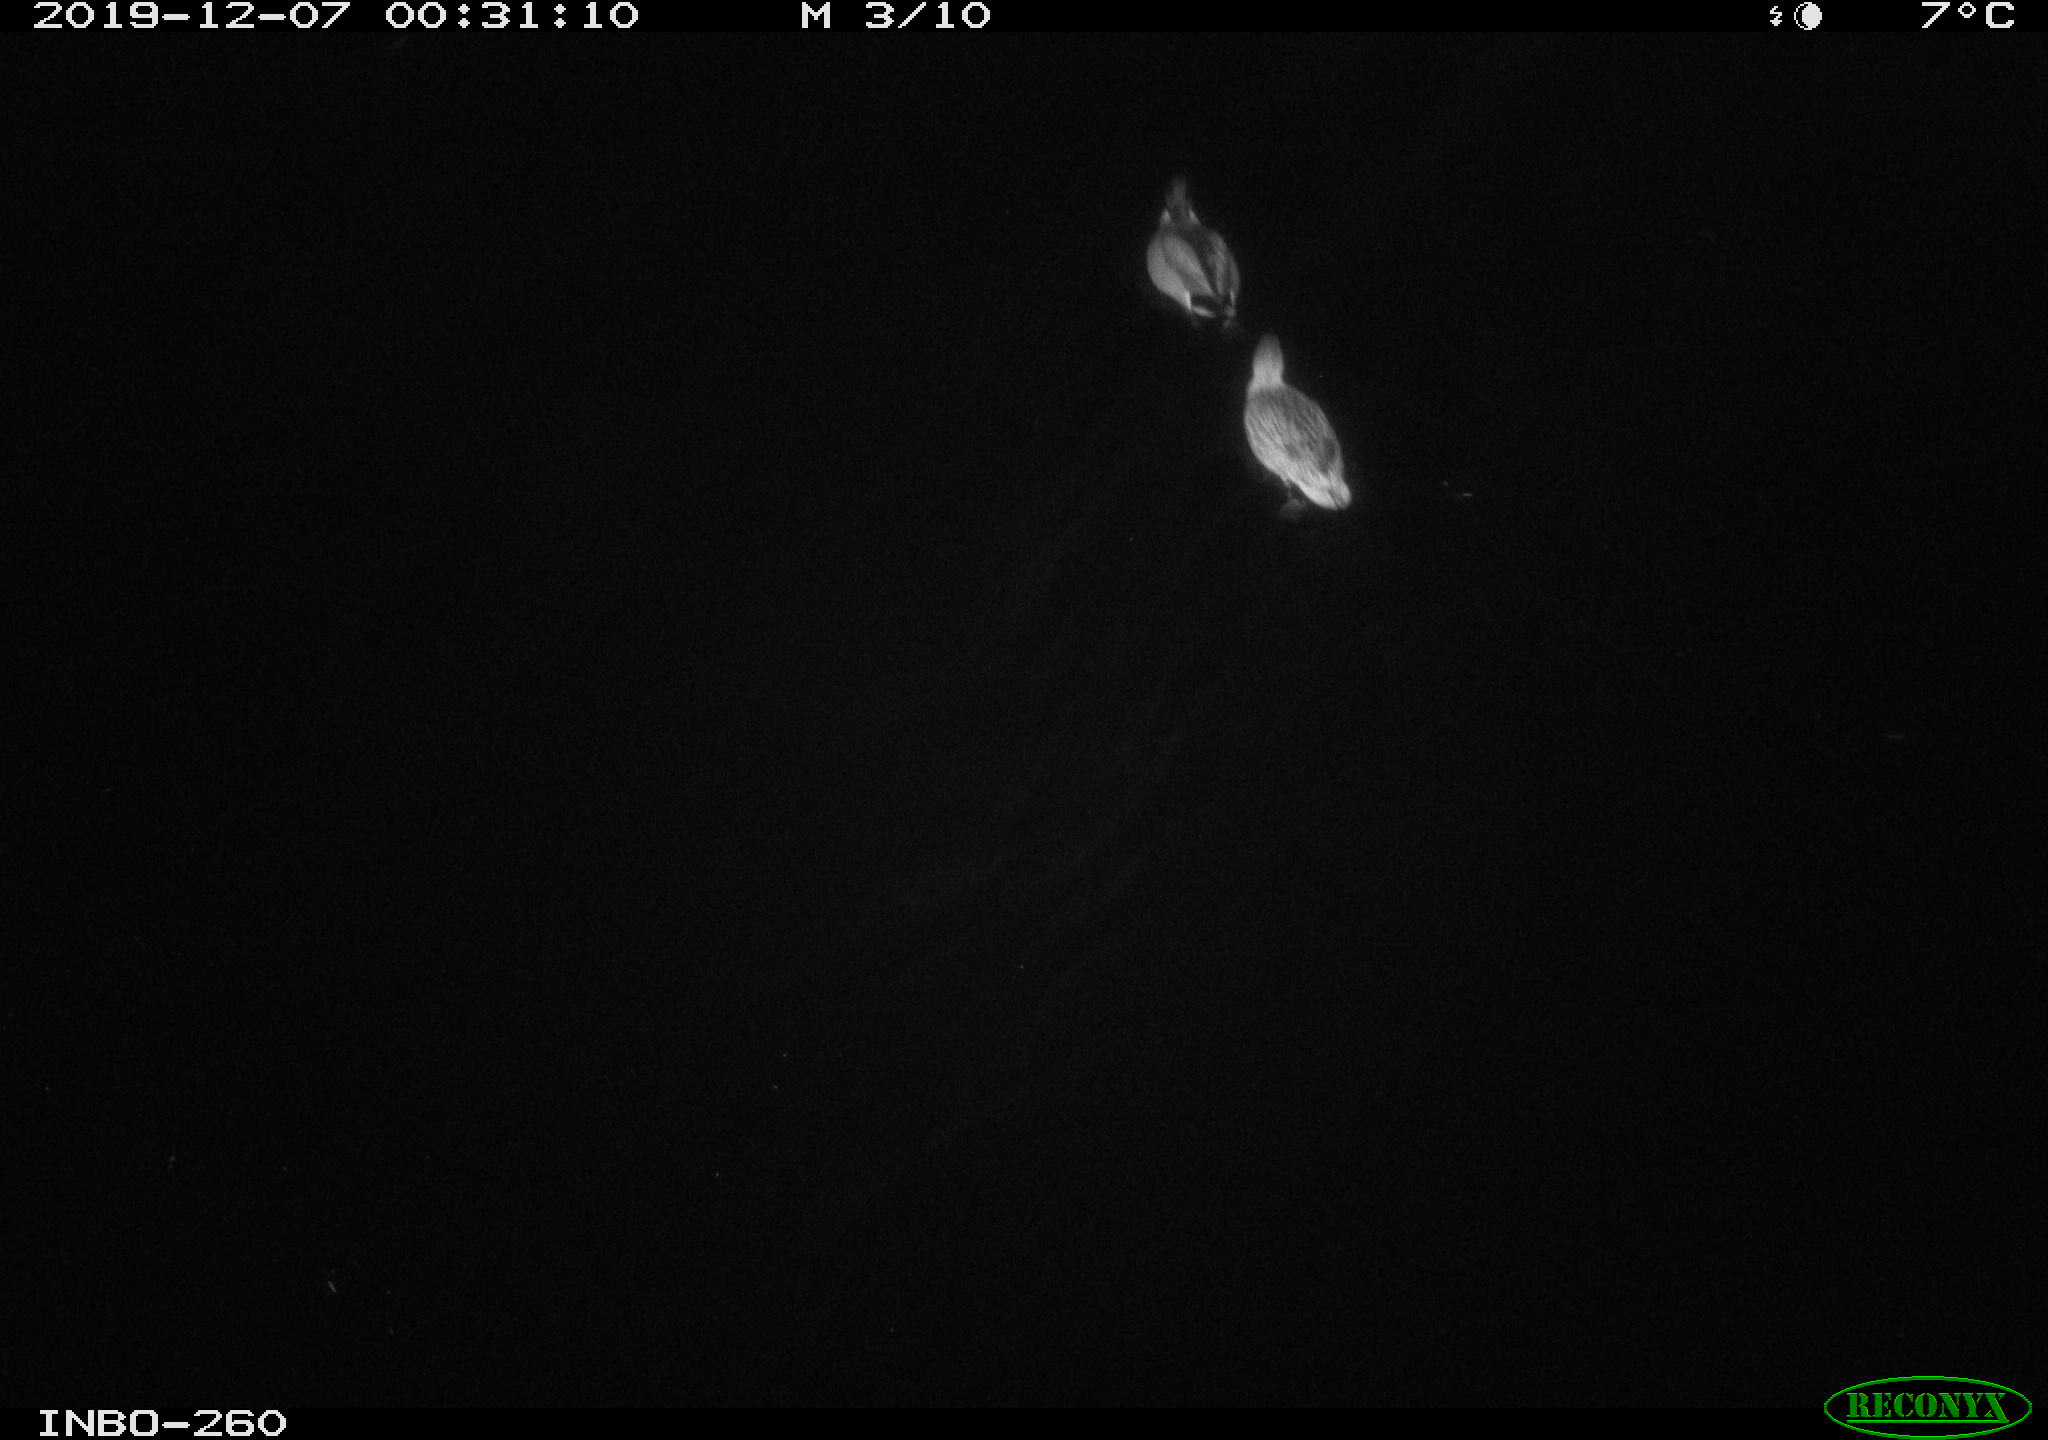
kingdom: Animalia
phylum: Chordata
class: Aves
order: Anseriformes
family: Anatidae
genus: Anas
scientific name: Anas platyrhynchos
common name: Mallard
